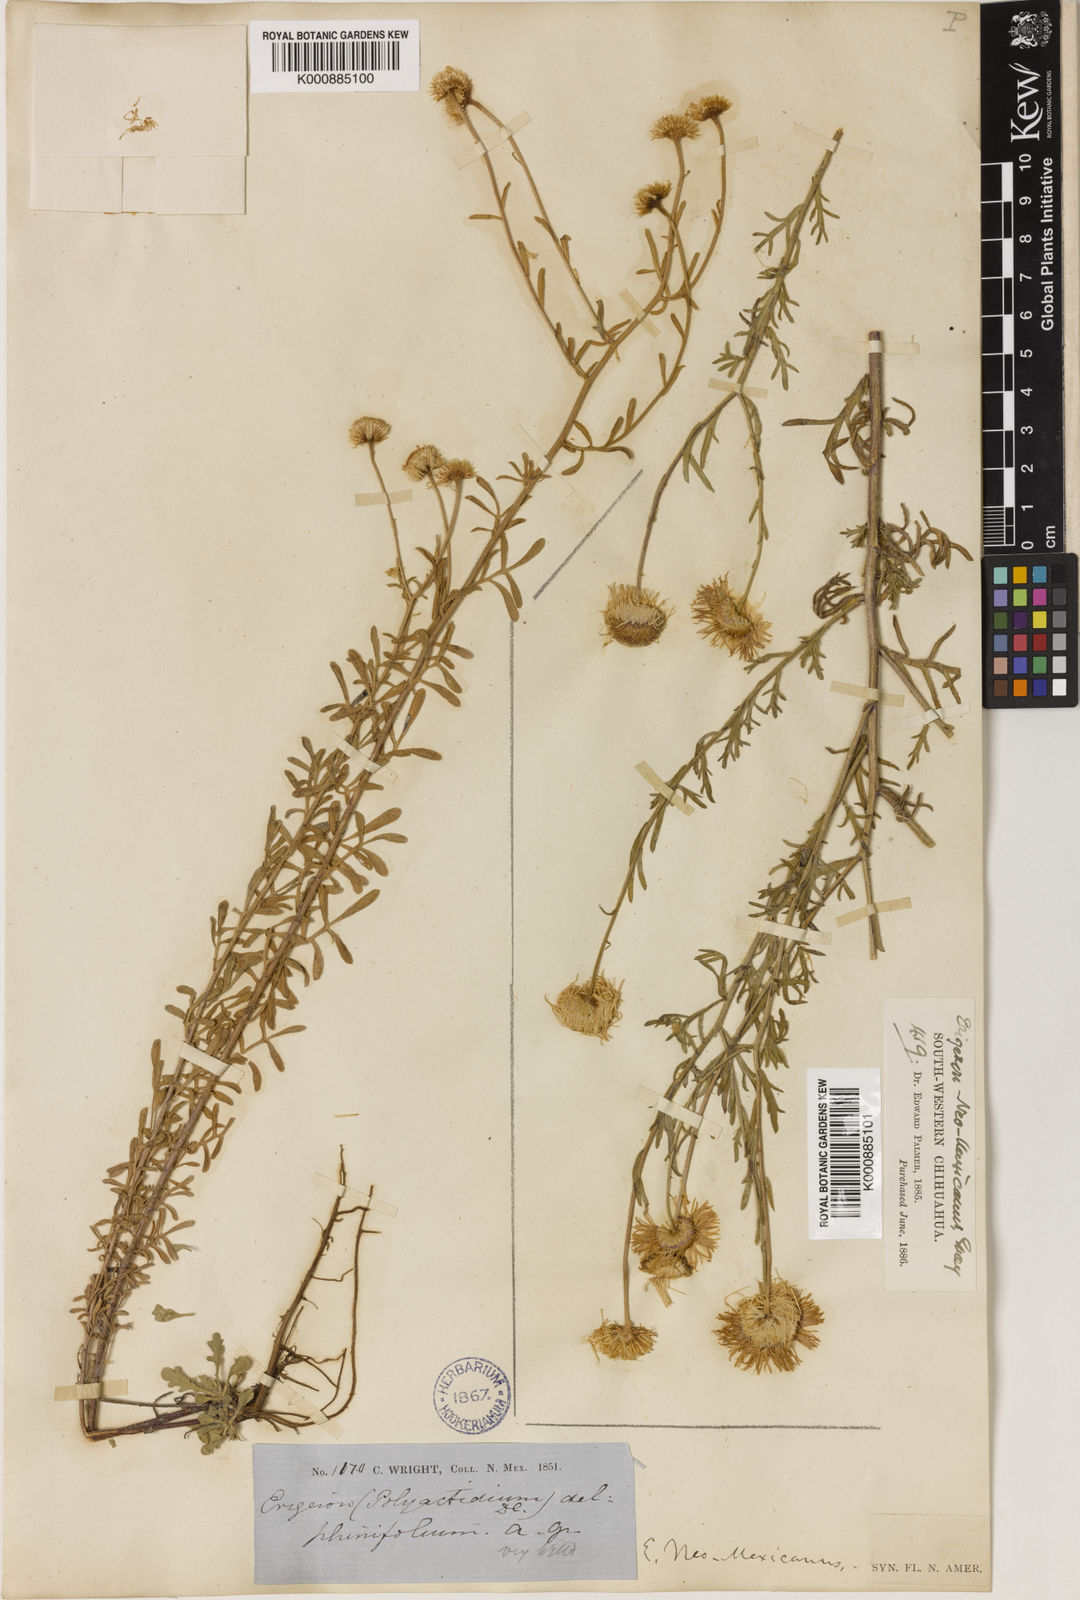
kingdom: Plantae
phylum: Tracheophyta
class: Magnoliopsida
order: Asterales
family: Asteraceae
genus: Erigeron
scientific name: Erigeron
